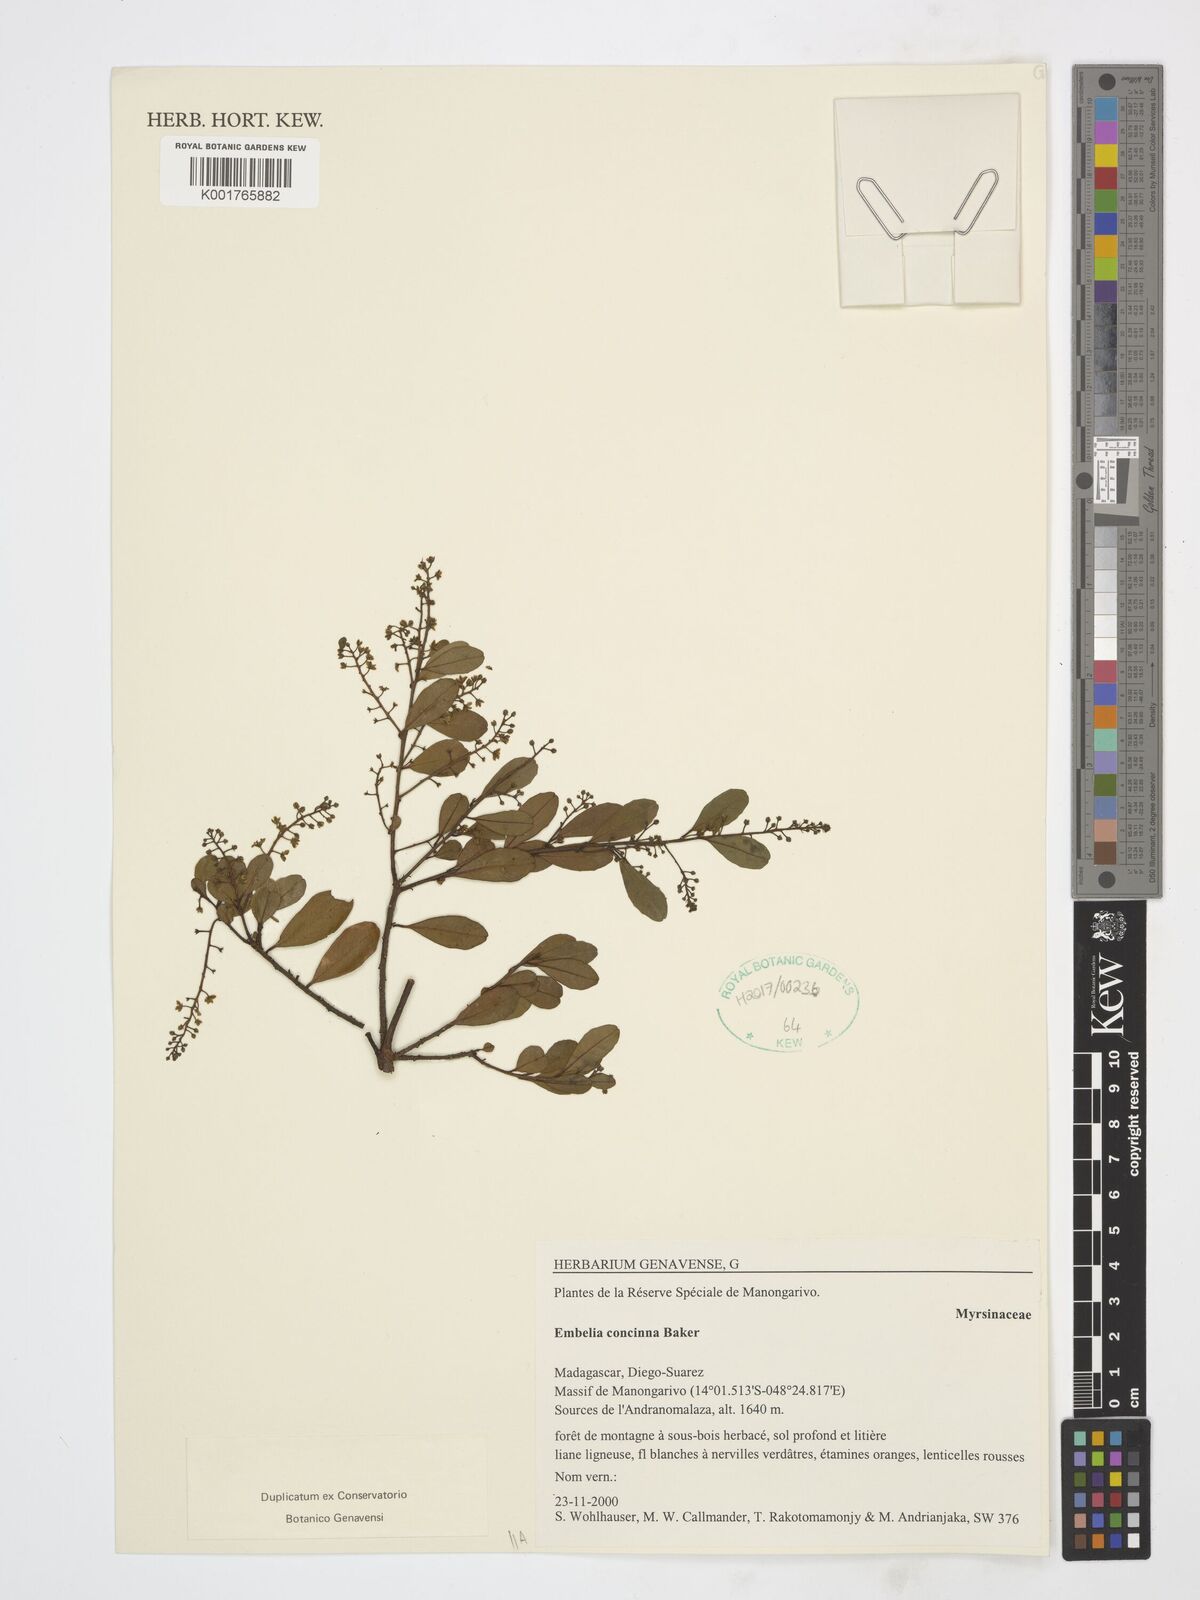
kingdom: Plantae
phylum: Tracheophyta
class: Magnoliopsida
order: Ericales
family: Primulaceae
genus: Embelia
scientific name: Embelia concinna
